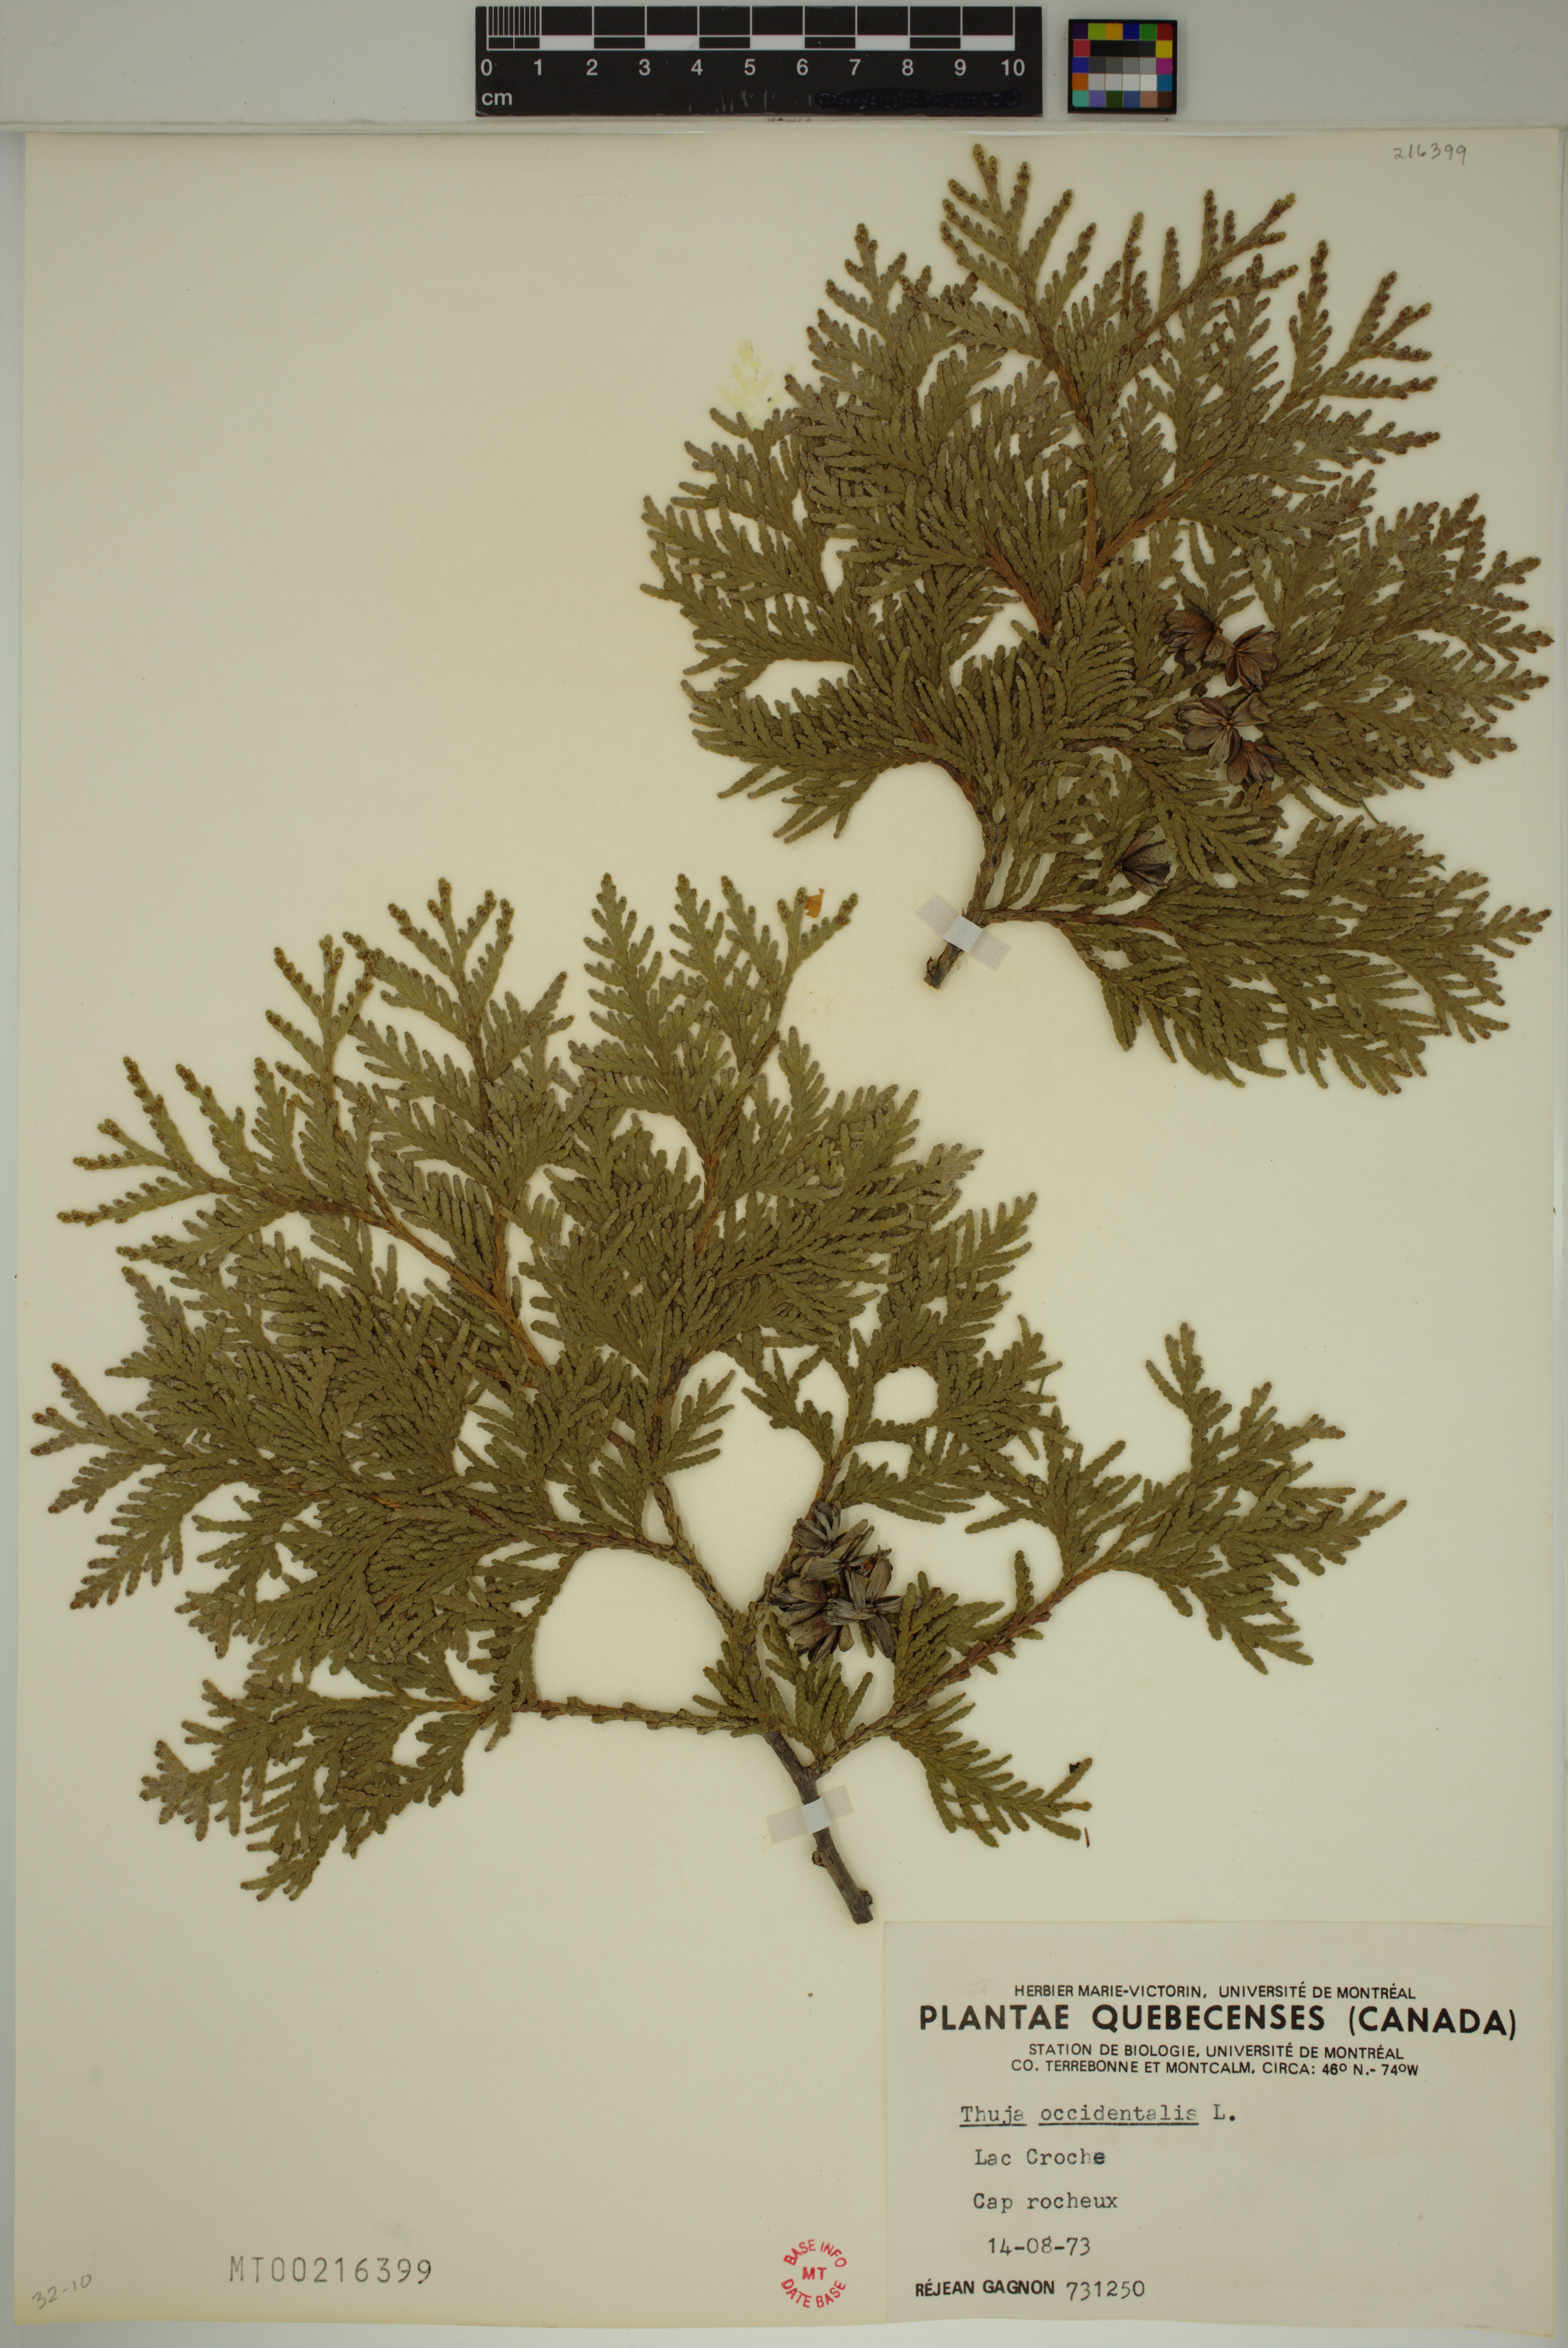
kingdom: Plantae
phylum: Tracheophyta
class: Pinopsida
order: Pinales
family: Cupressaceae
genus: Thuja
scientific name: Thuja occidentalis
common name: Northern white-cedar
